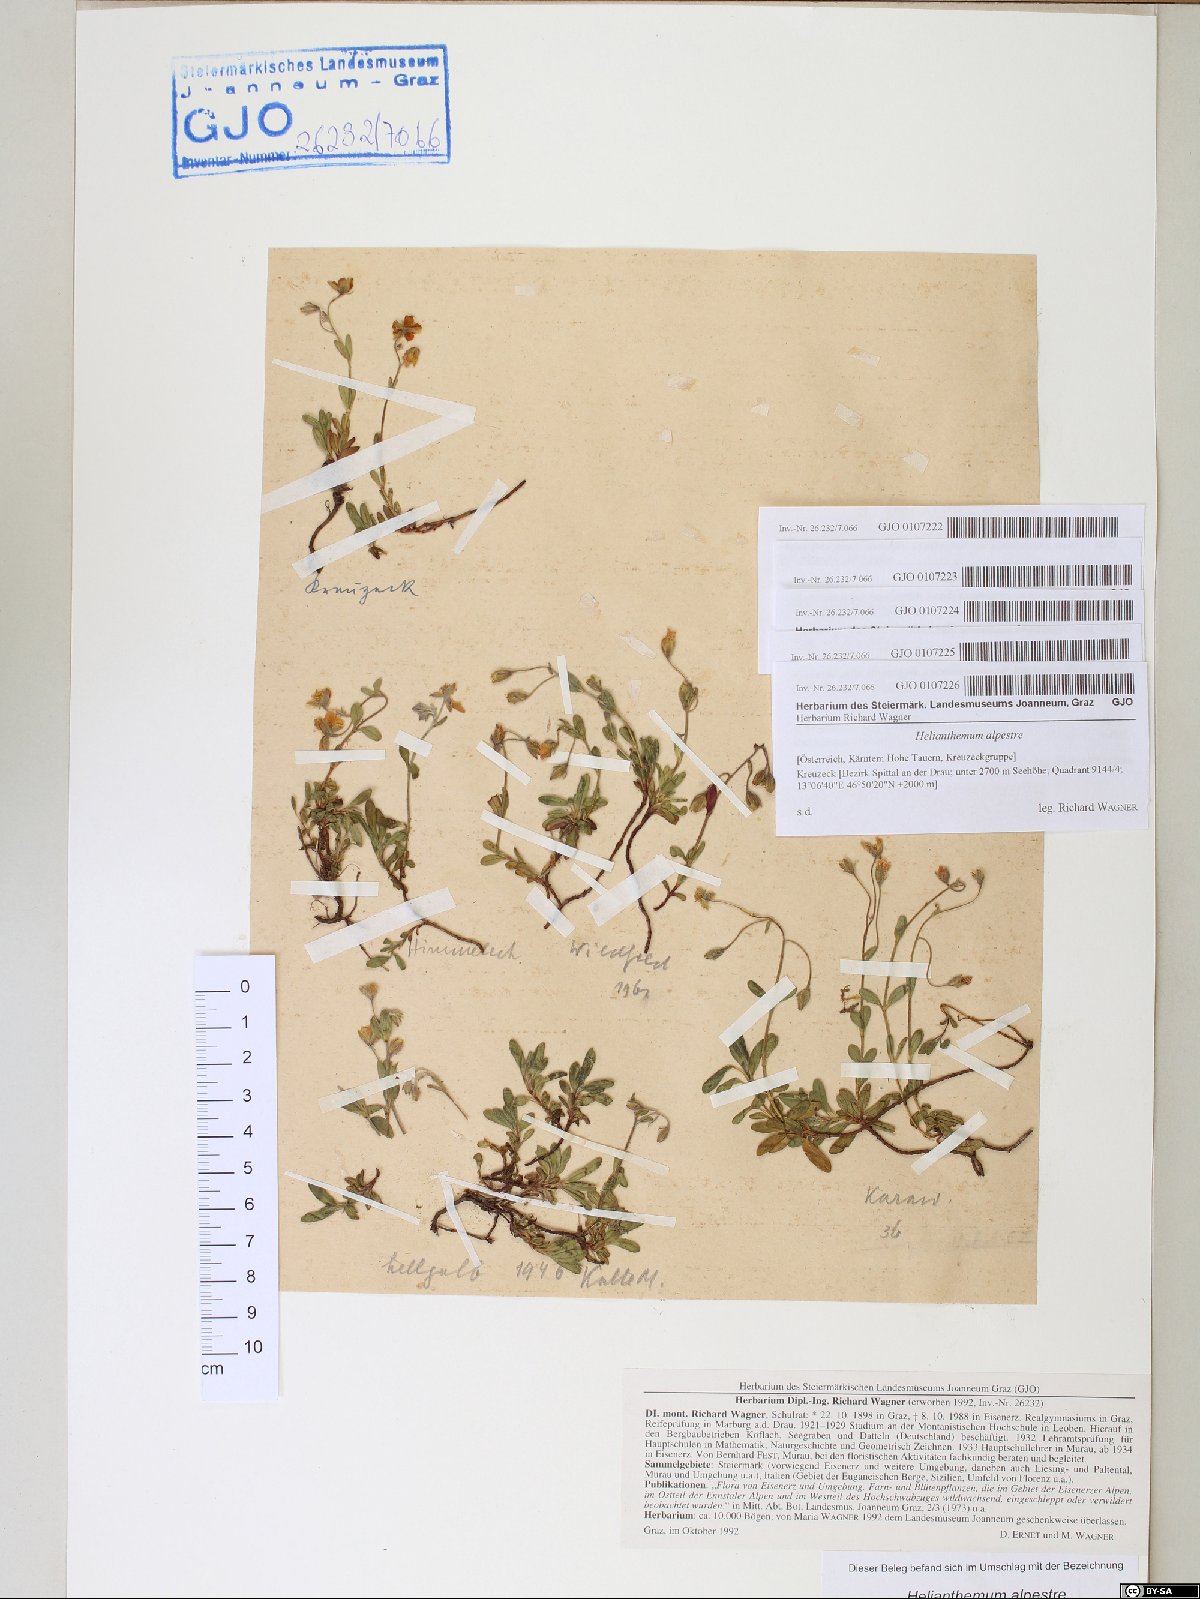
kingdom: Plantae
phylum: Tracheophyta
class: Magnoliopsida
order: Malvales
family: Cistaceae
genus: Helianthemum
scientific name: Helianthemum alpestre
